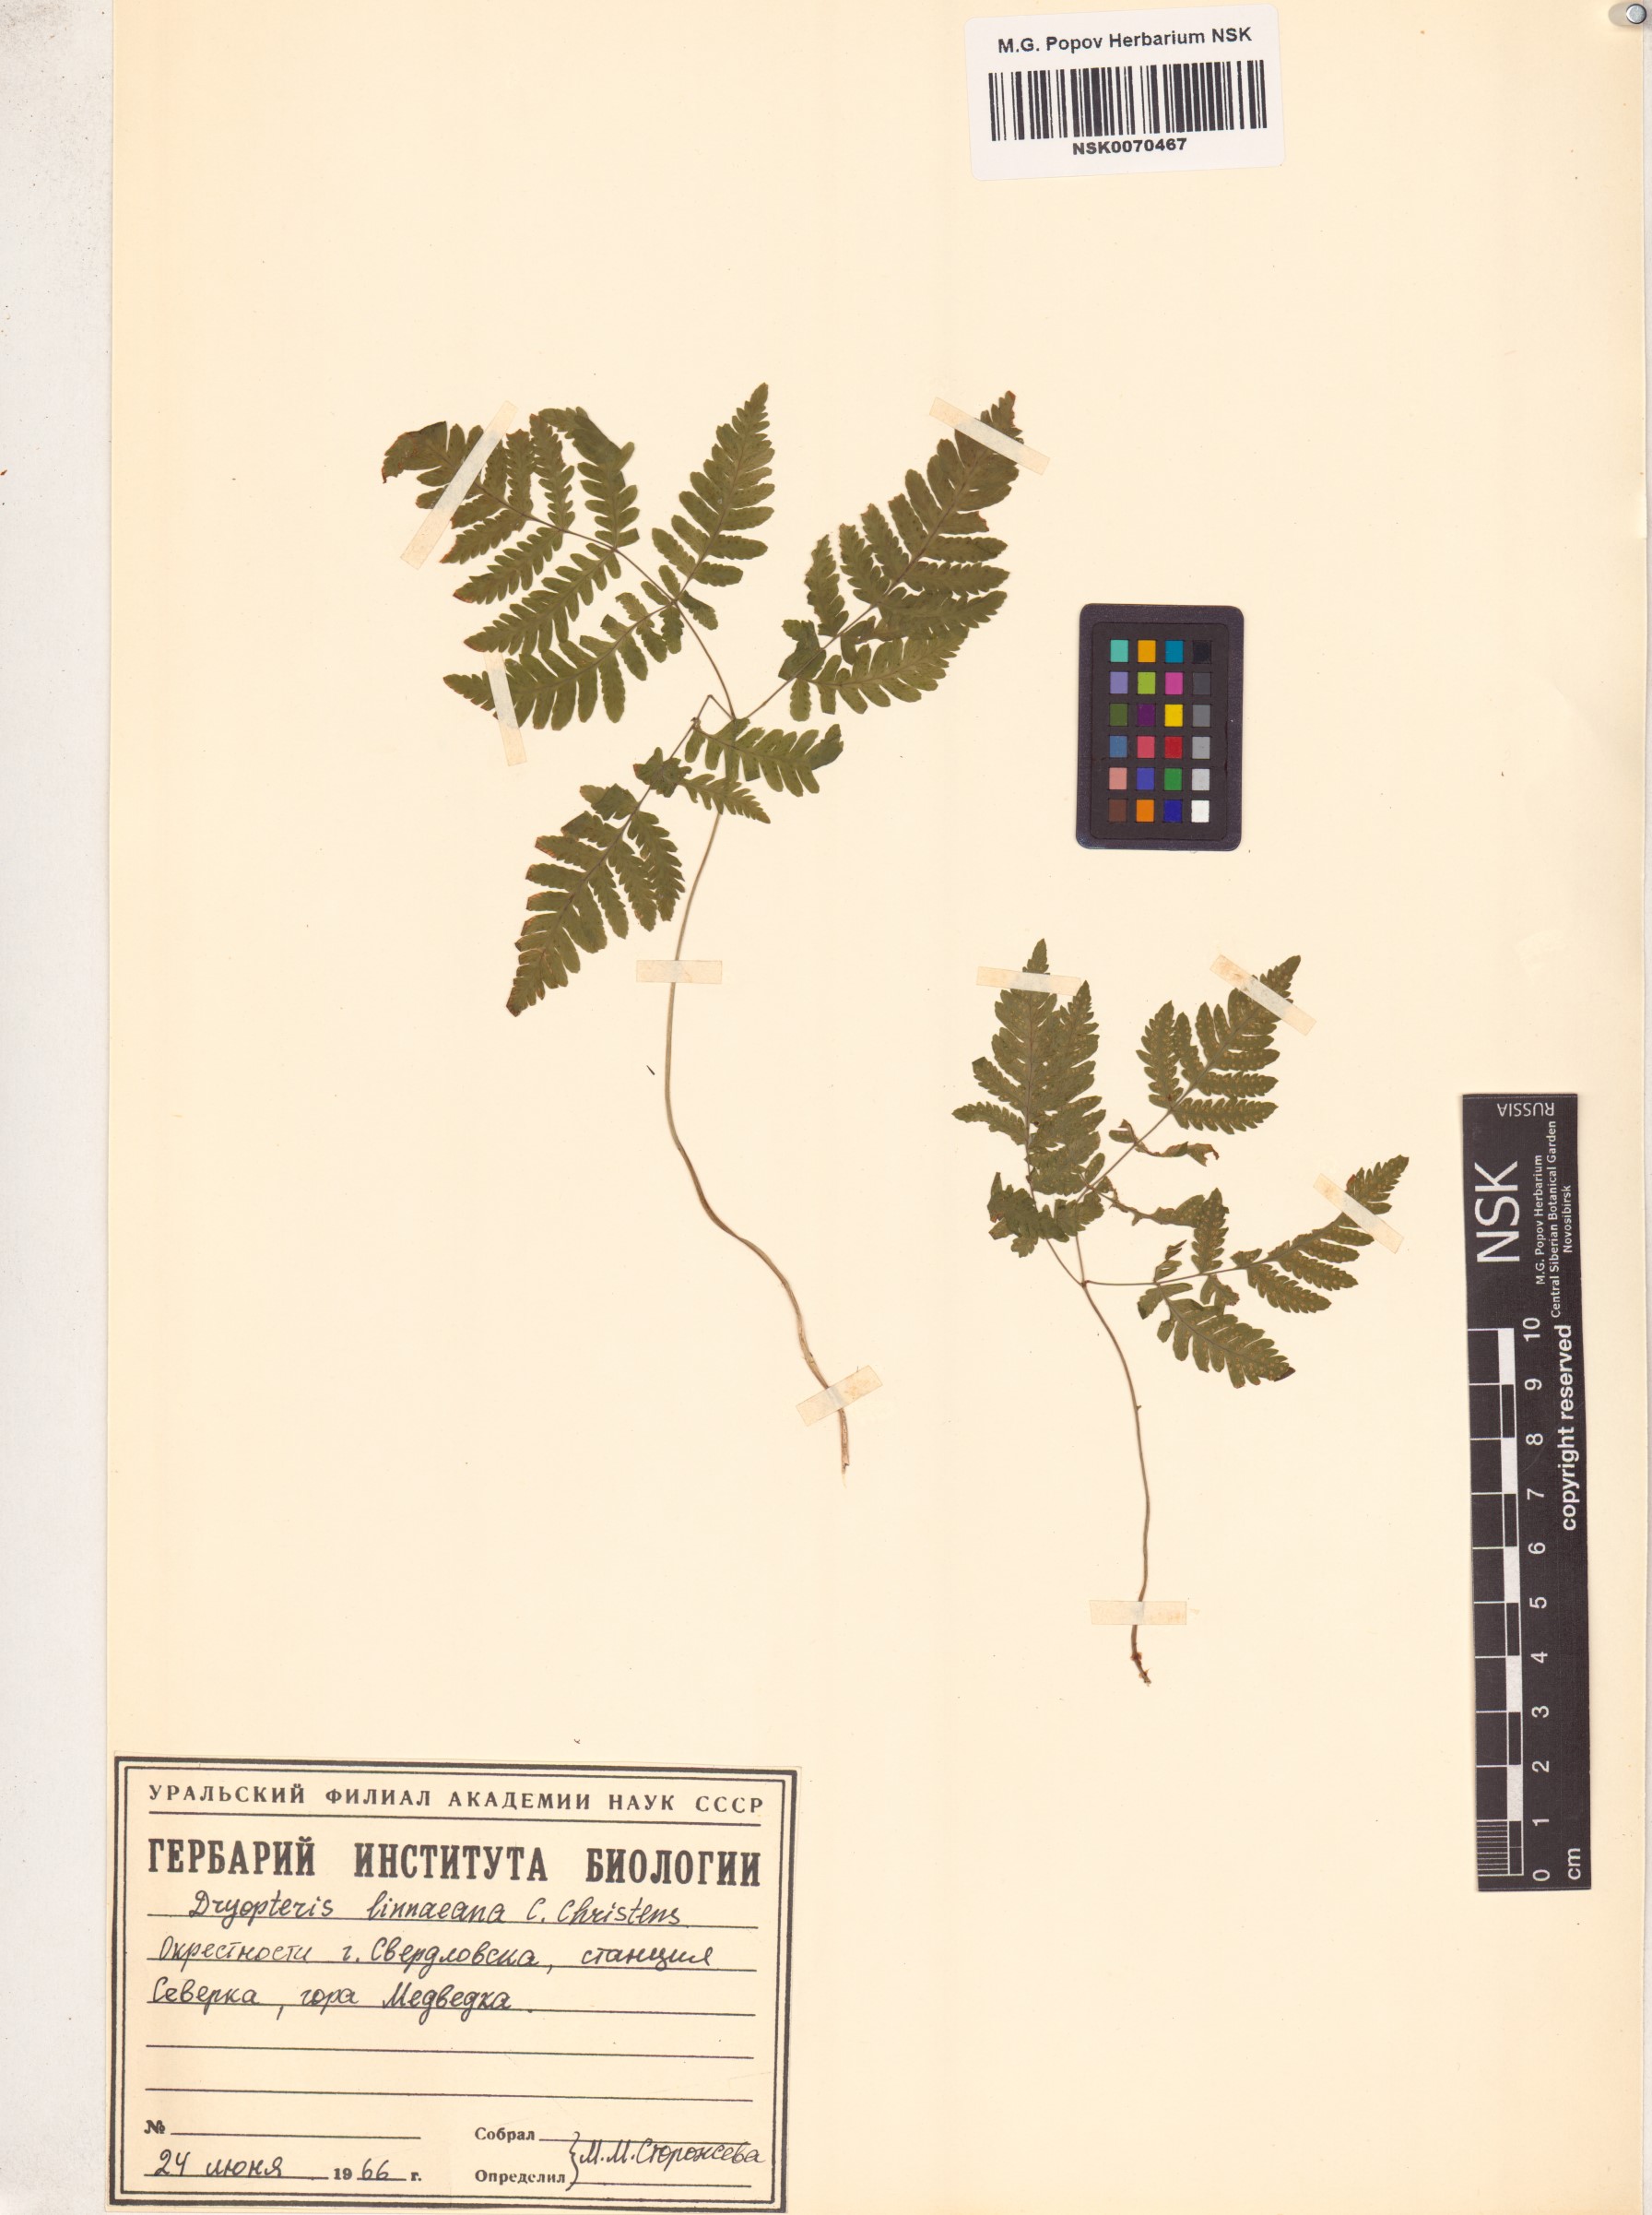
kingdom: Plantae
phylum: Tracheophyta
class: Polypodiopsida
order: Polypodiales
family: Cystopteridaceae
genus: Gymnocarpium
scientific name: Gymnocarpium dryopteris
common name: Oak fern
